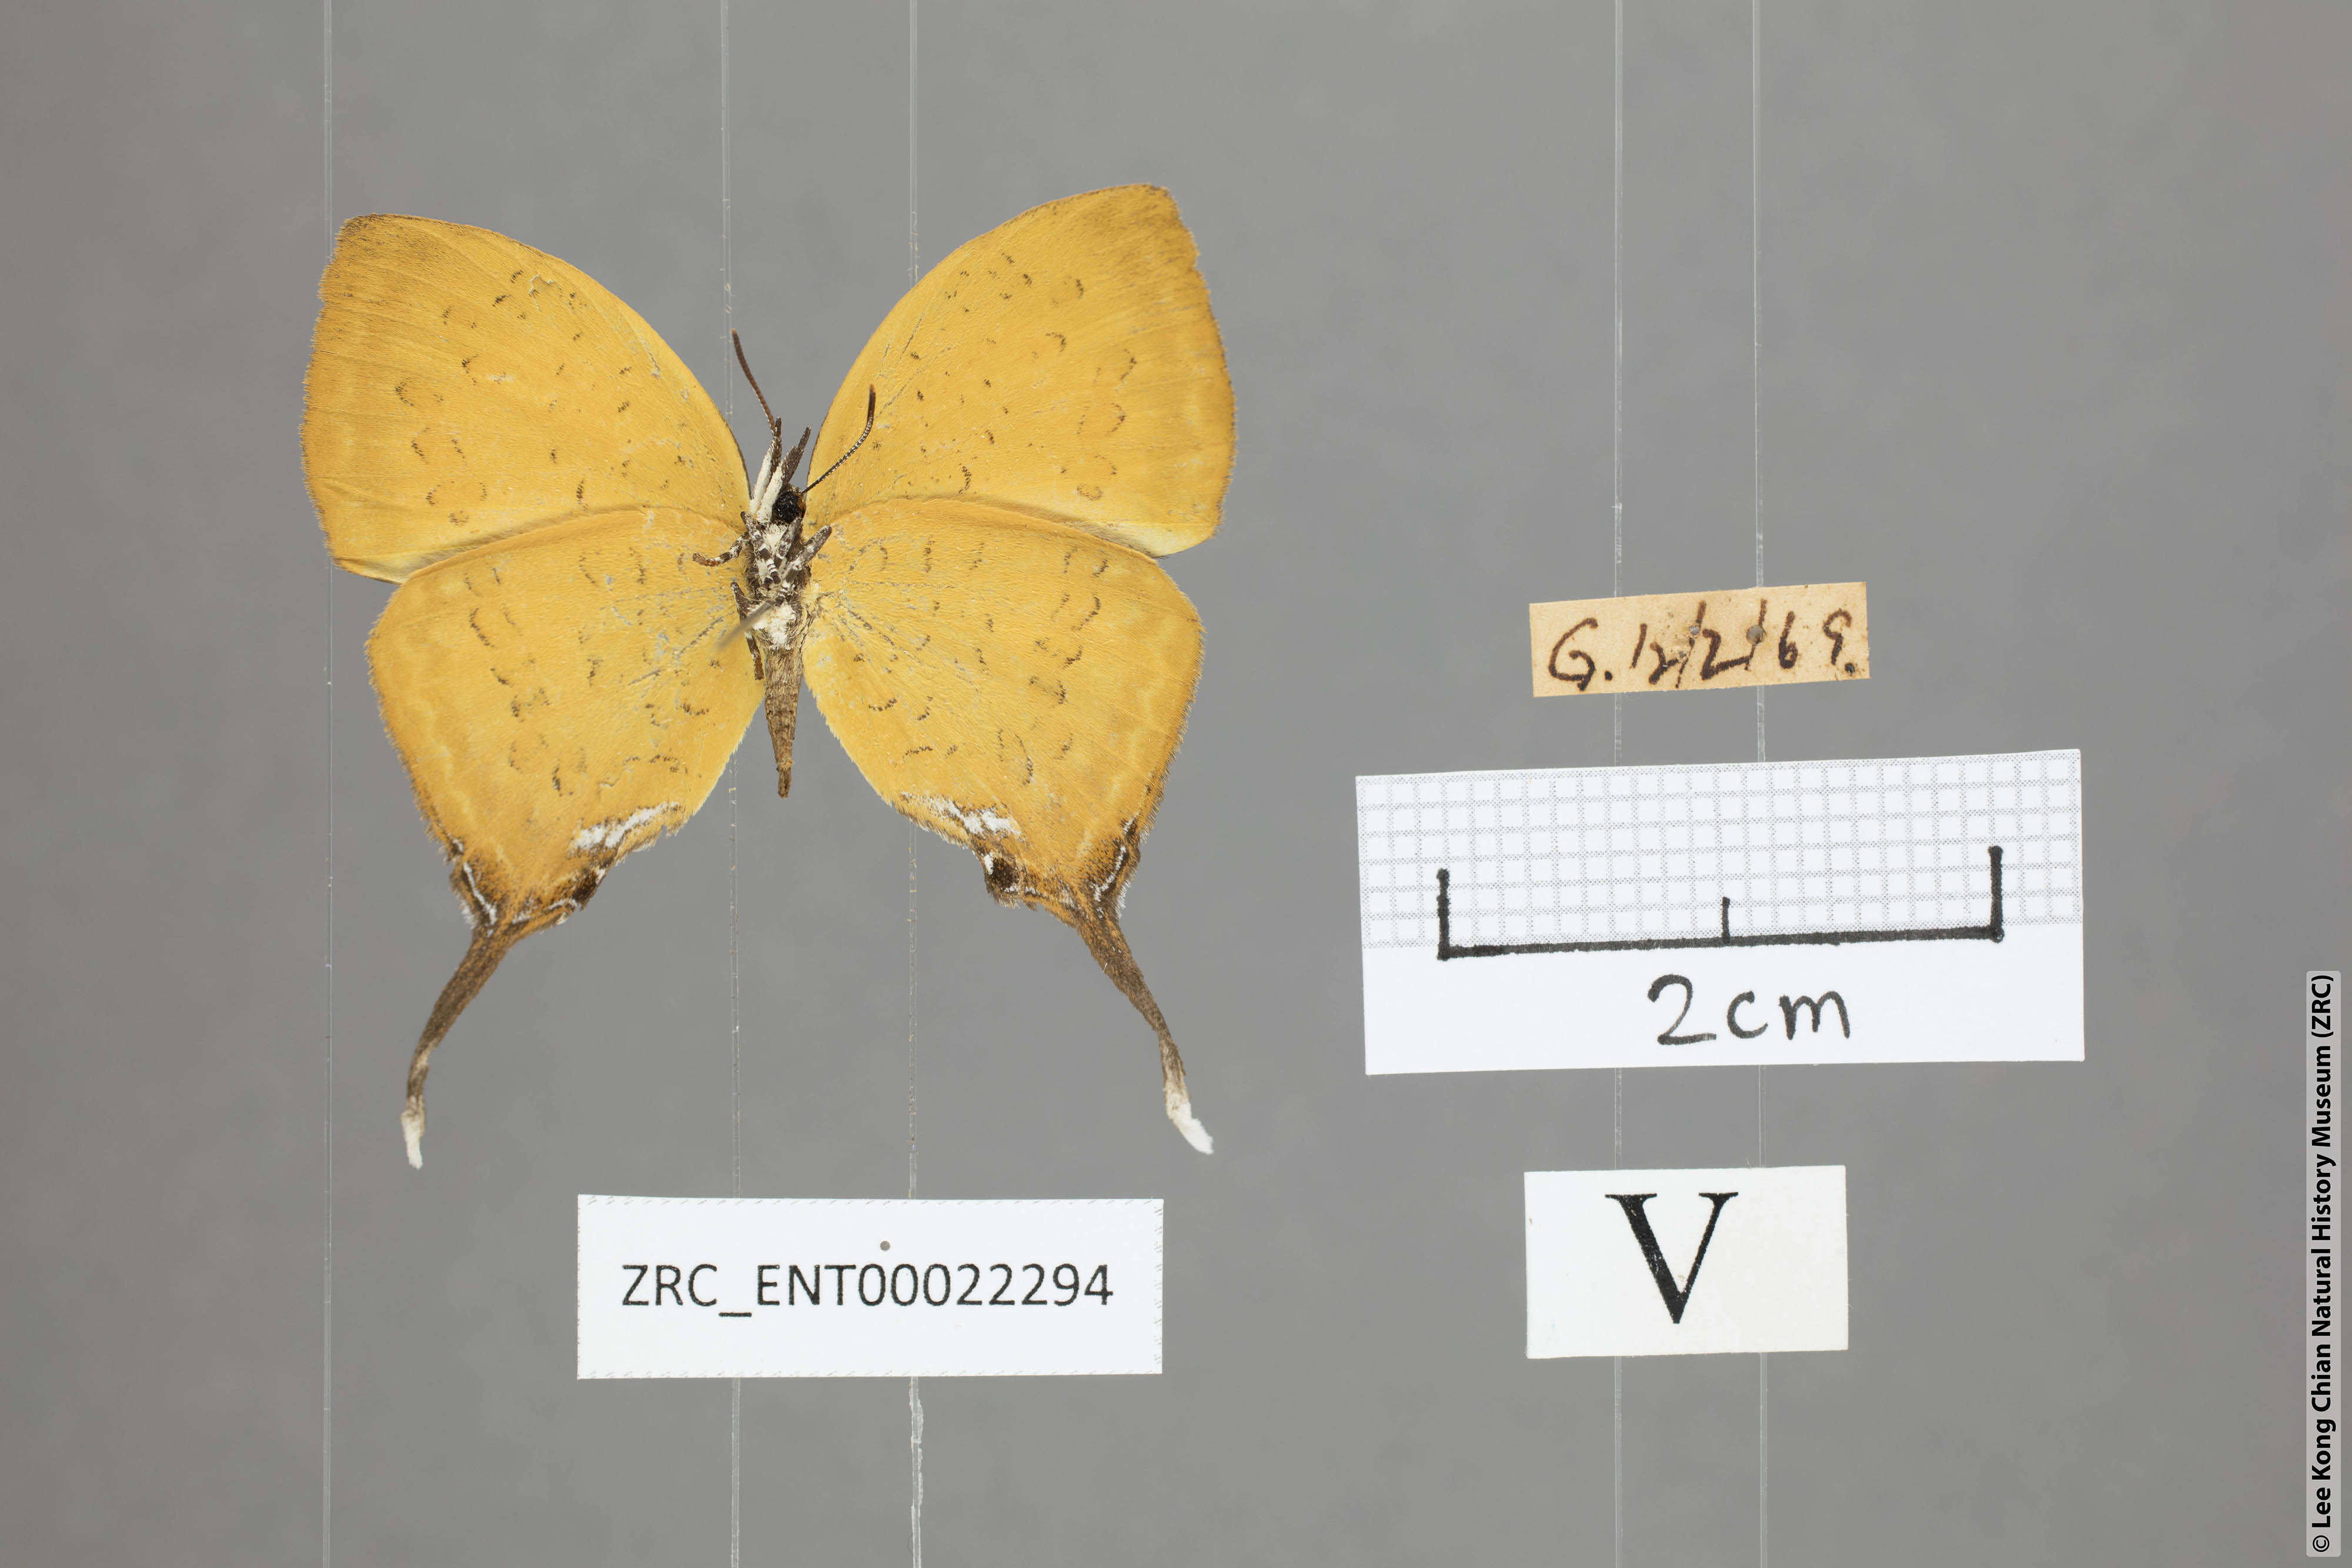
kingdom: Animalia
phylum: Arthropoda
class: Insecta
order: Lepidoptera
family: Lycaenidae
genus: Yasoda
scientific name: Yasoda pita
